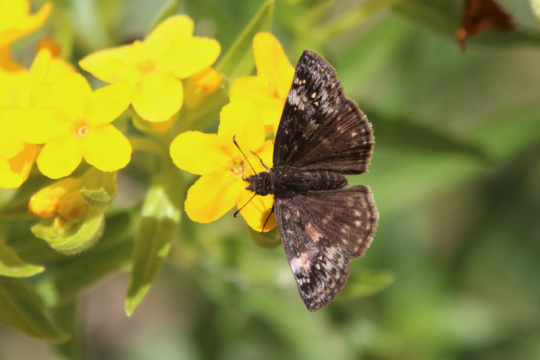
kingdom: Animalia
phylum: Arthropoda
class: Insecta
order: Lepidoptera
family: Hesperiidae
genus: Erynnis
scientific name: Erynnis
